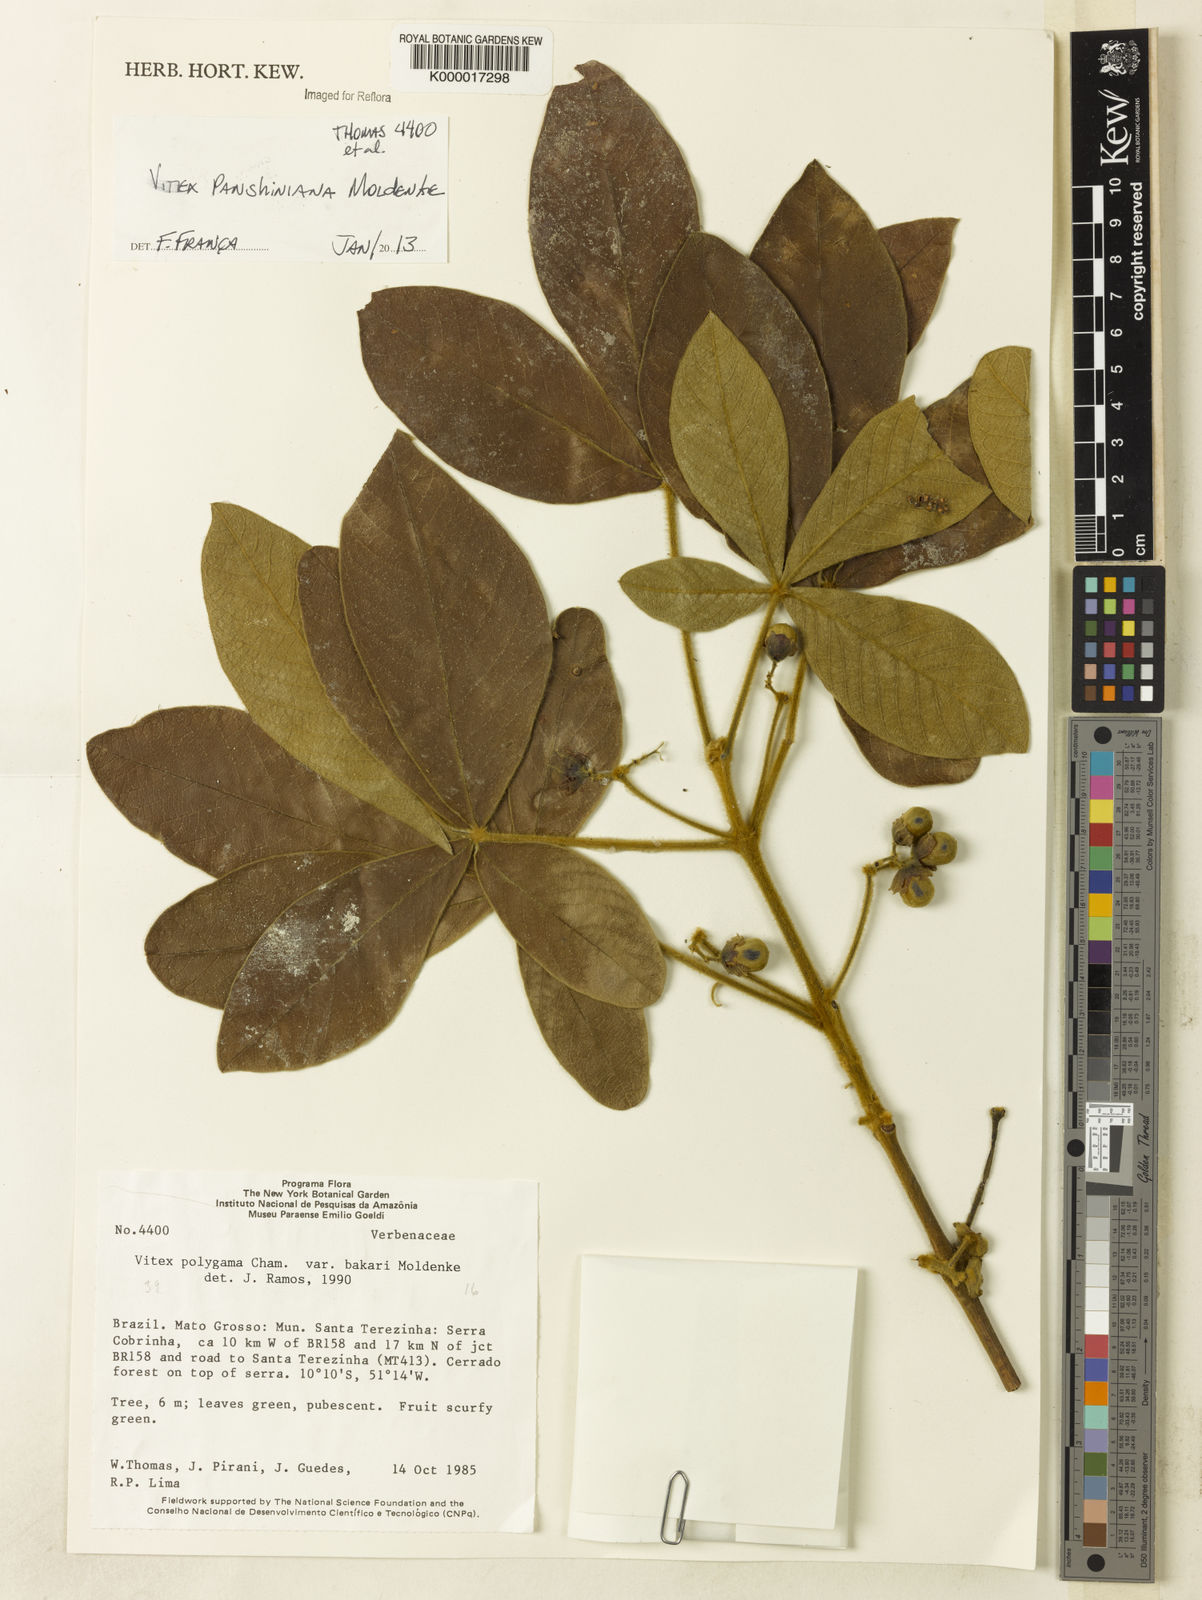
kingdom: Plantae
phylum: Tracheophyta
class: Magnoliopsida
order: Lamiales
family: Lamiaceae
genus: Vitex
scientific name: Vitex panshiniana
